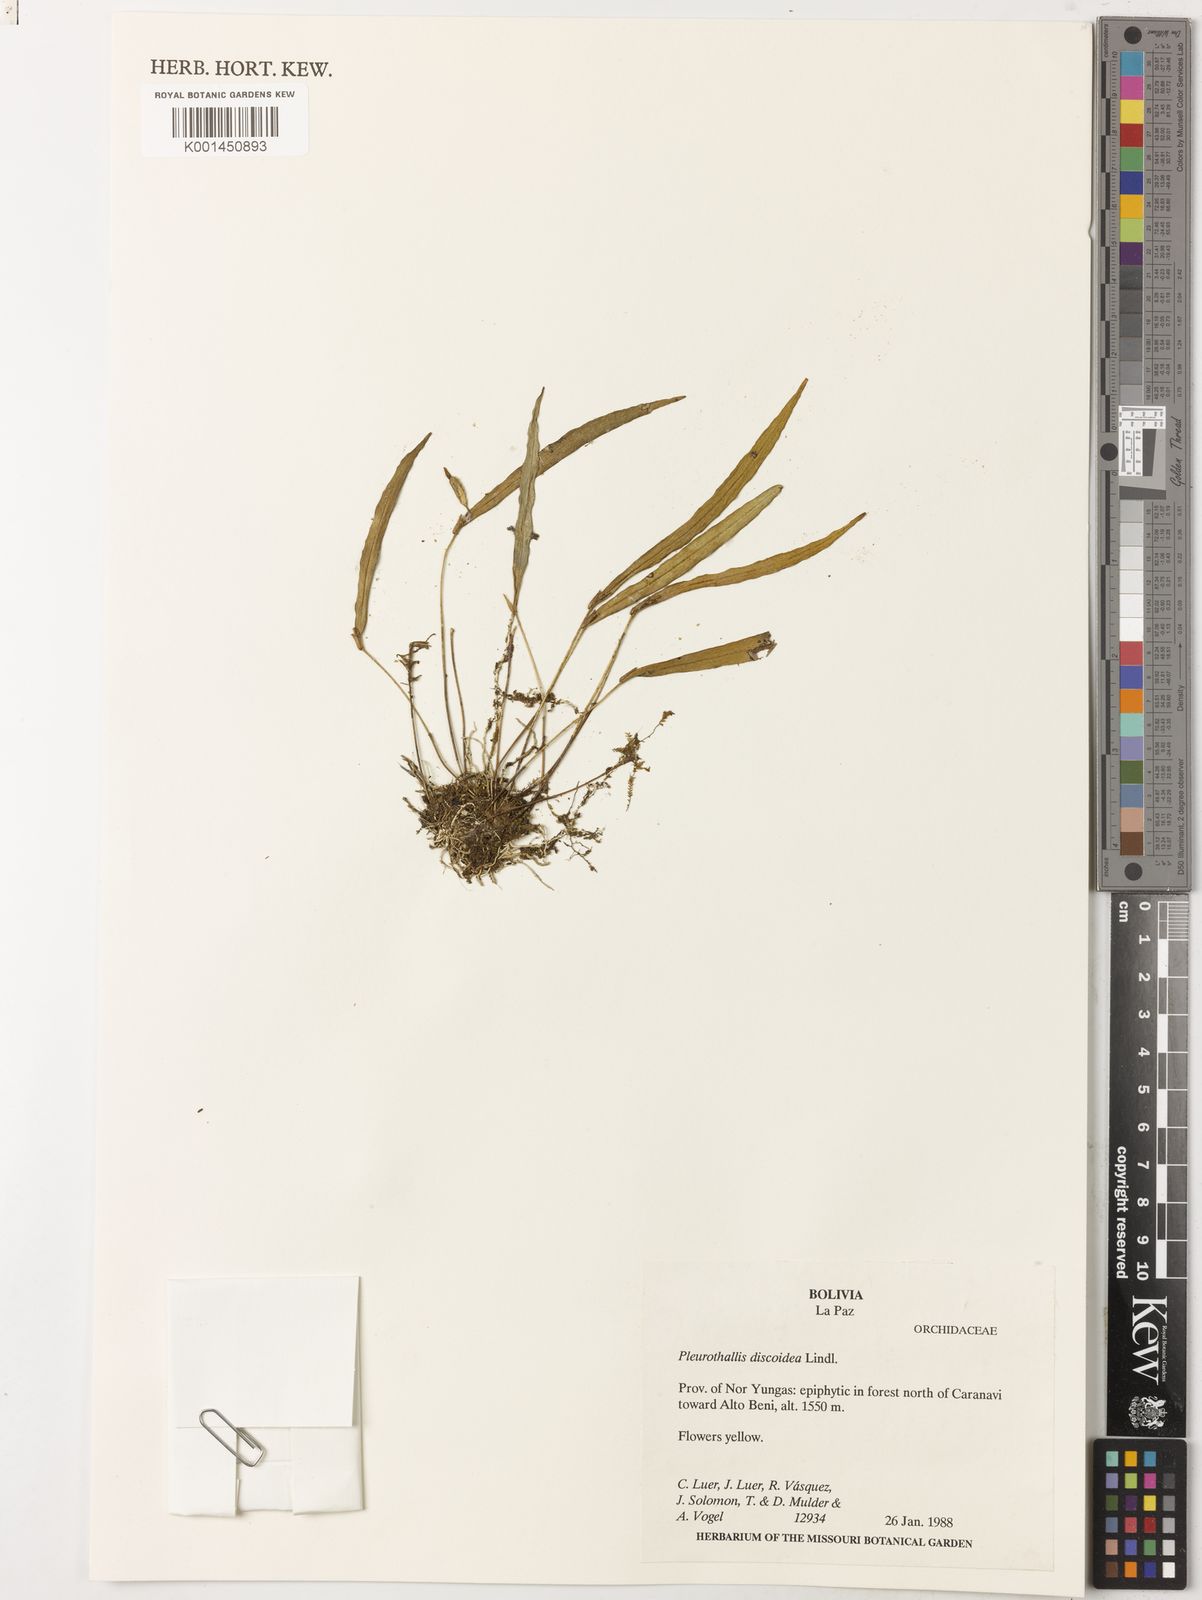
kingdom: Plantae
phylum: Tracheophyta
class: Liliopsida
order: Asparagales
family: Orchidaceae
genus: Pleurothallis
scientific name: Pleurothallis discoidea
